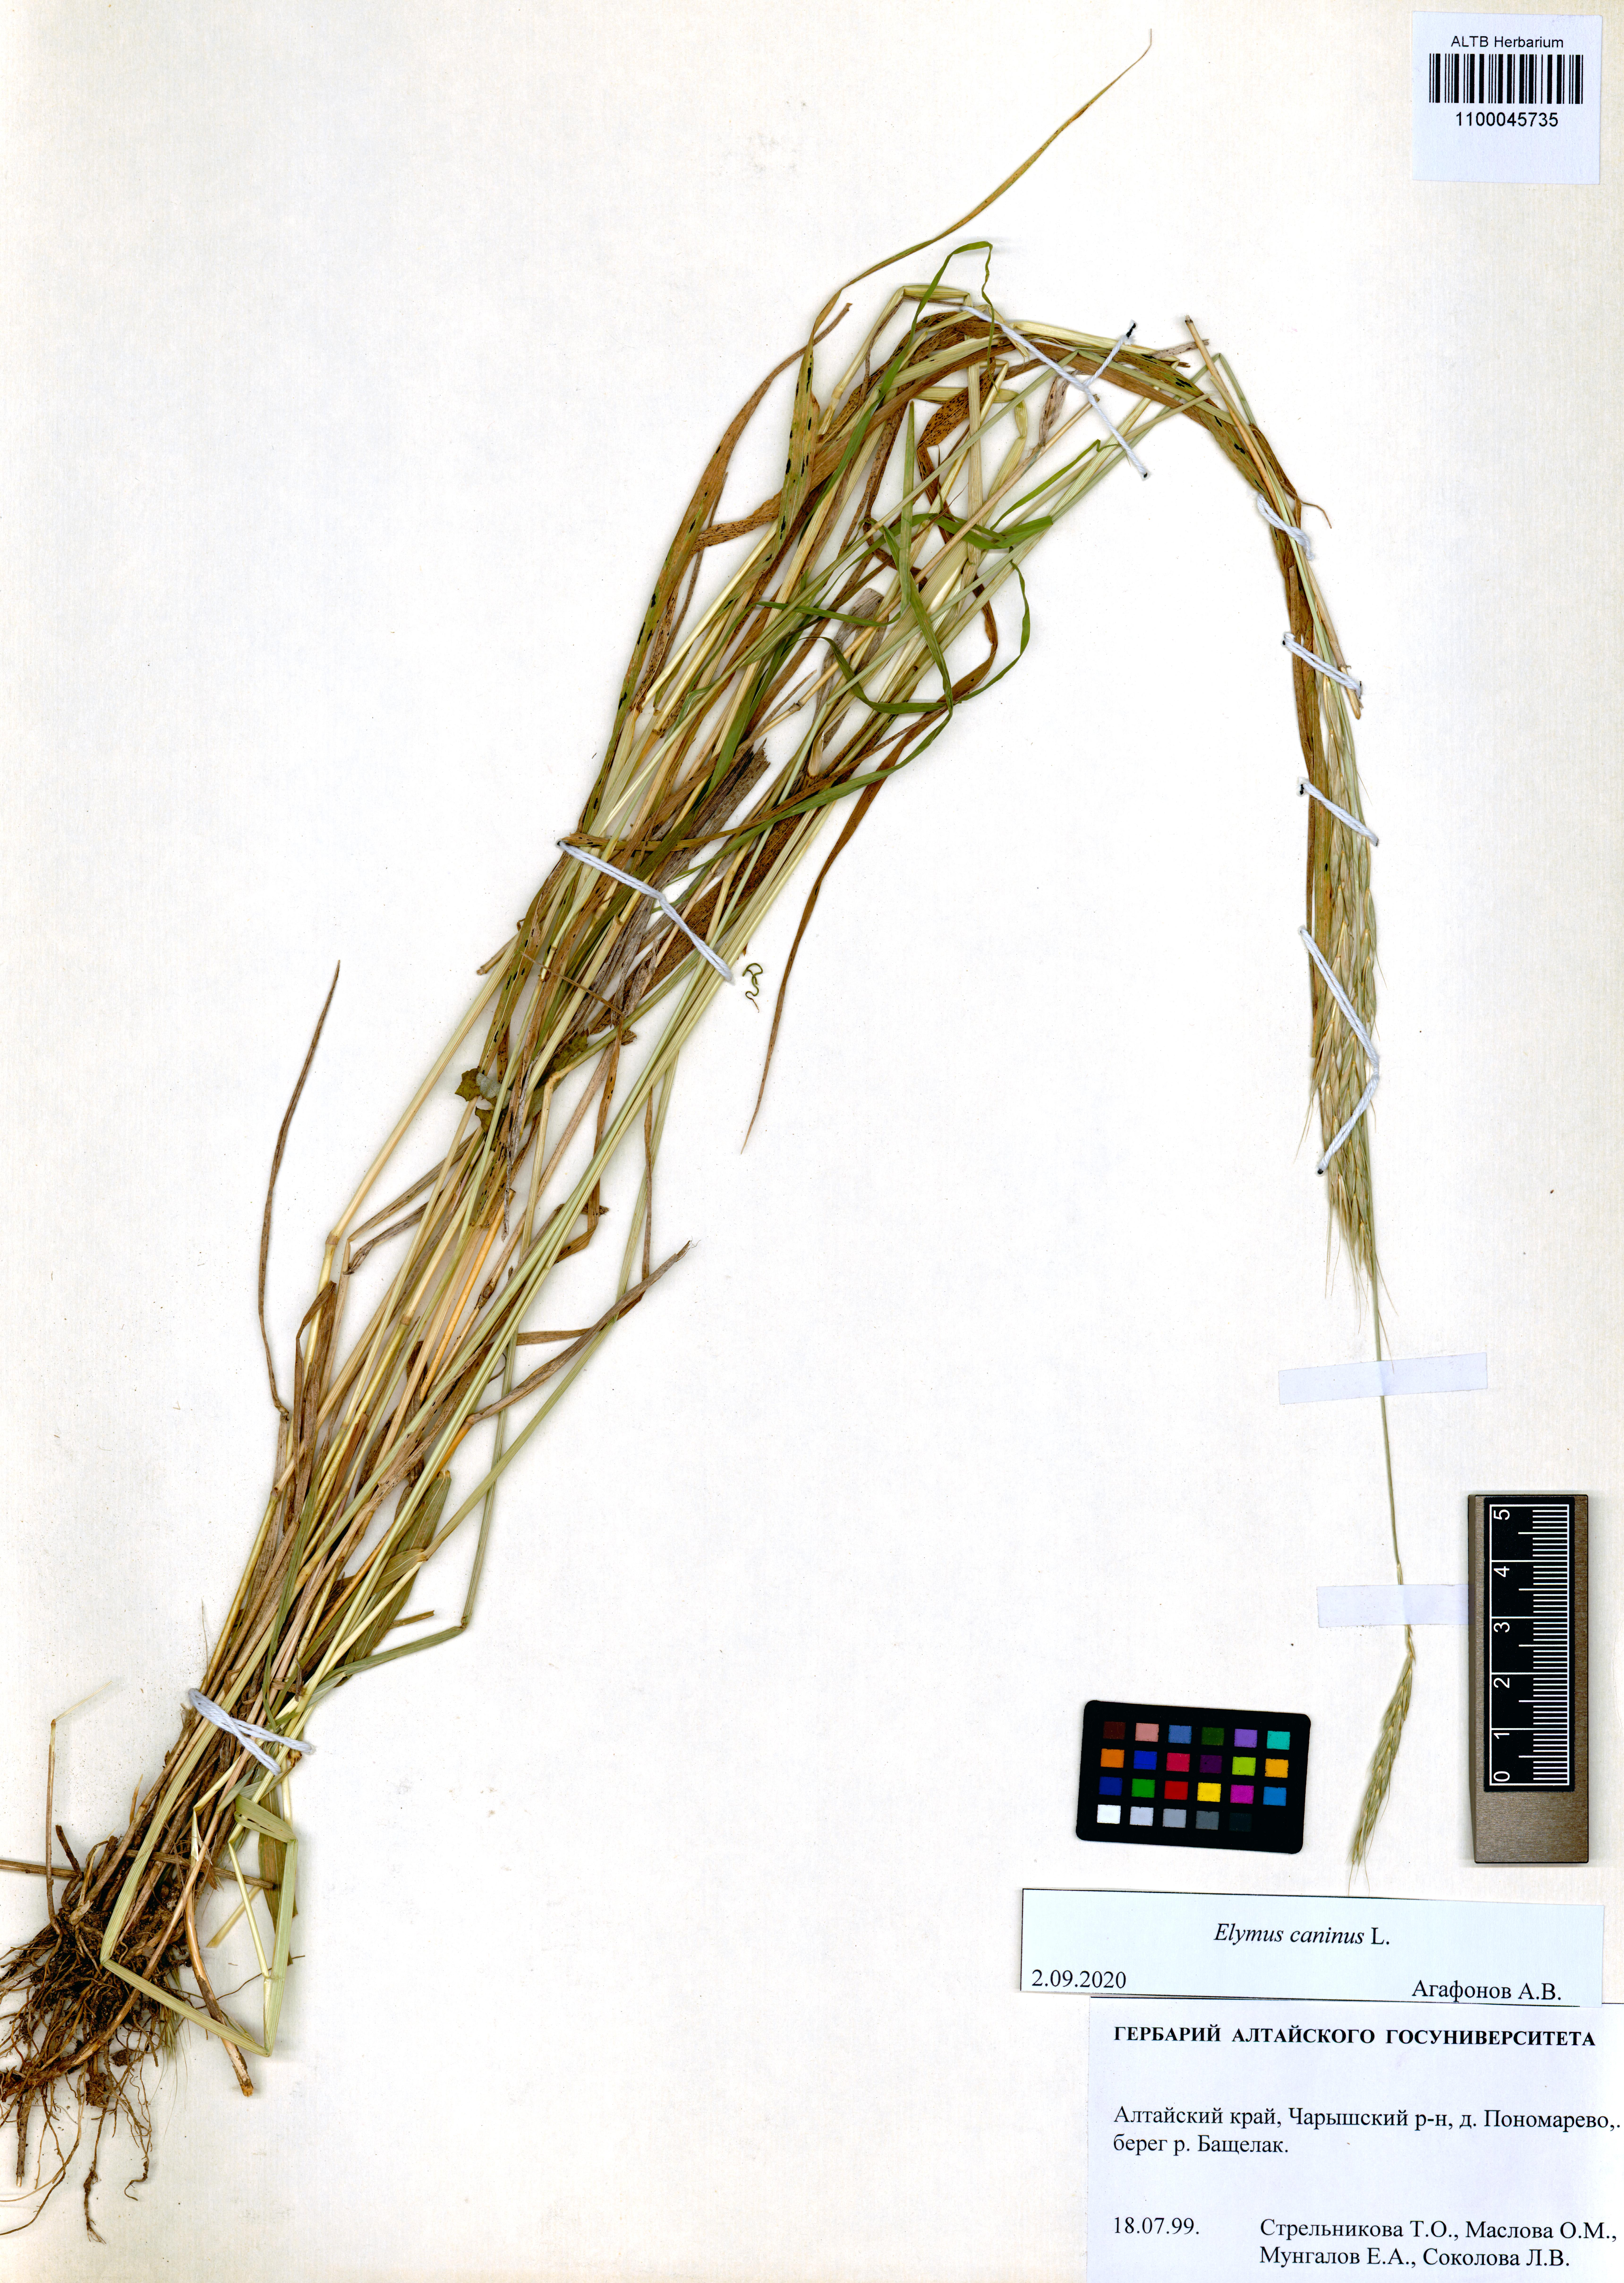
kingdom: Plantae
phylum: Tracheophyta
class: Liliopsida
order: Poales
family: Poaceae
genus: Elymus
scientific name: Elymus caninus
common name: Bearded couch
